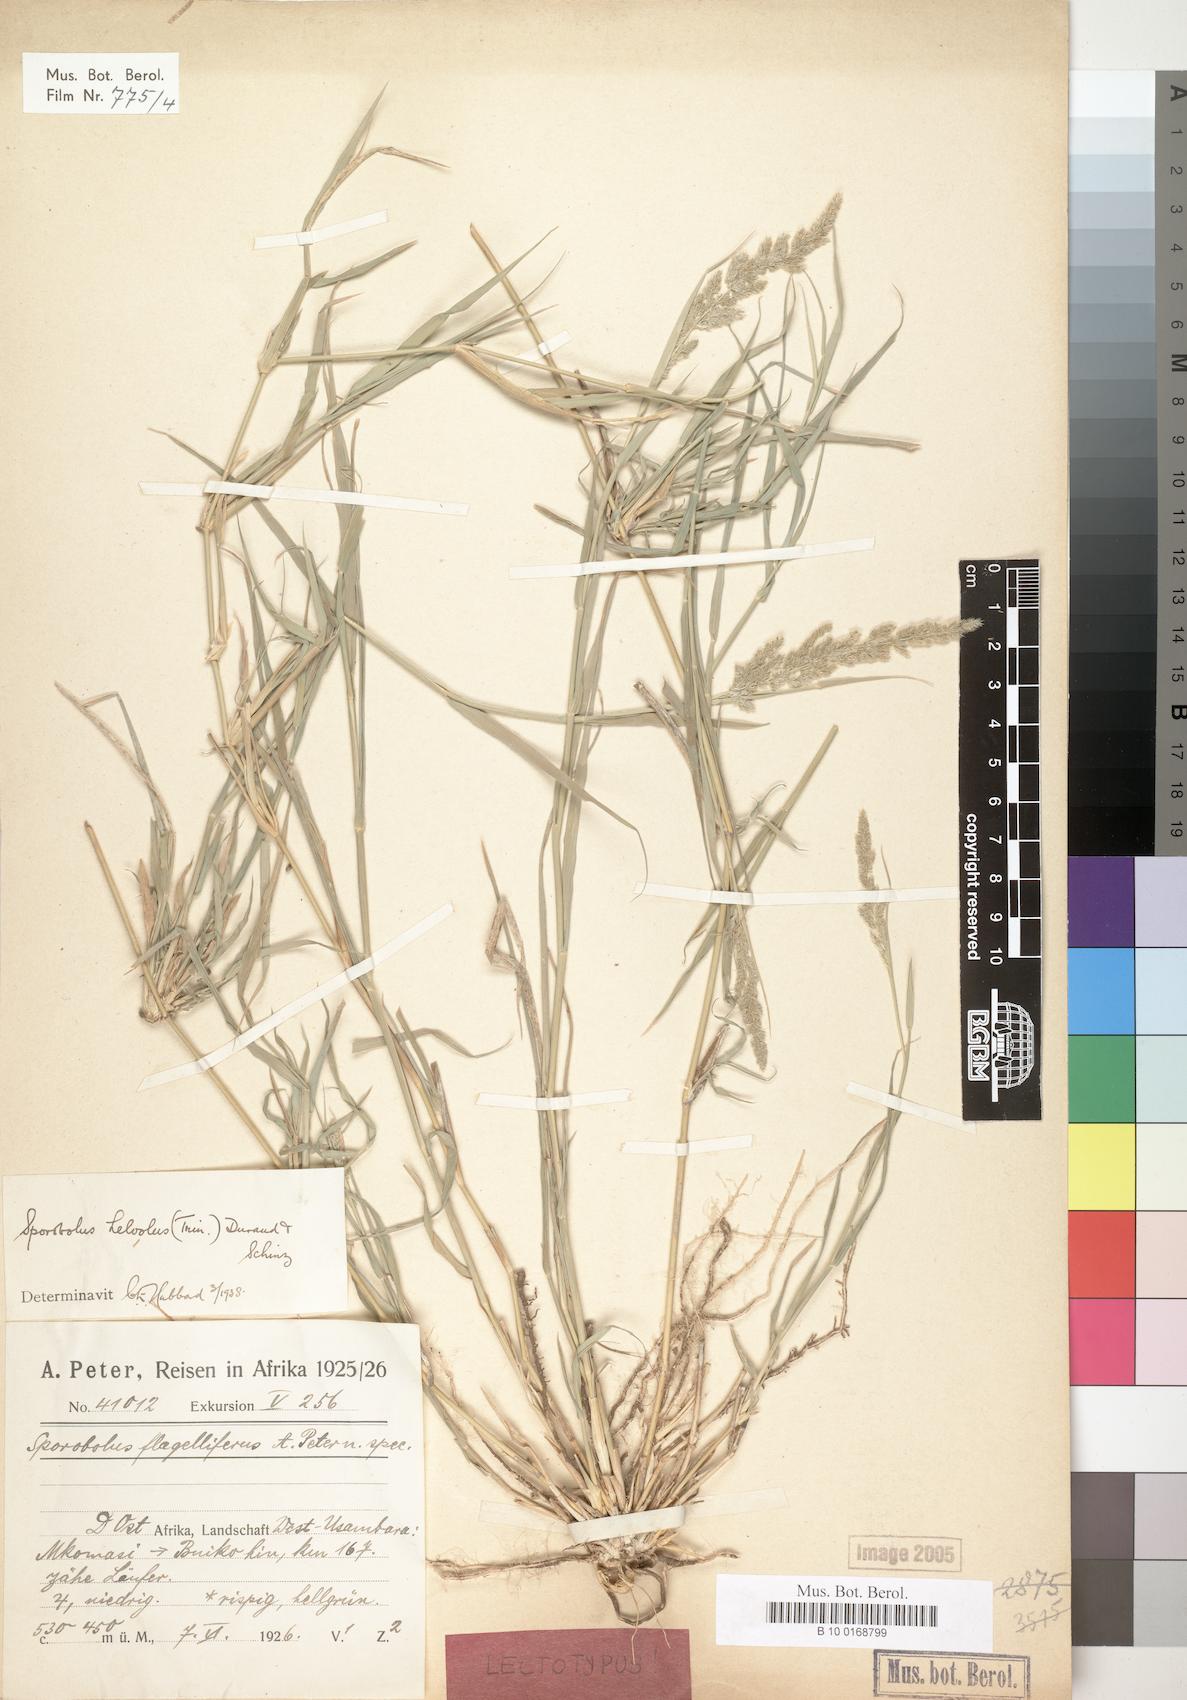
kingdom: Plantae
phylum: Tracheophyta
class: Liliopsida
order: Poales
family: Poaceae
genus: Sporobolus
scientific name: Sporobolus helvolus
